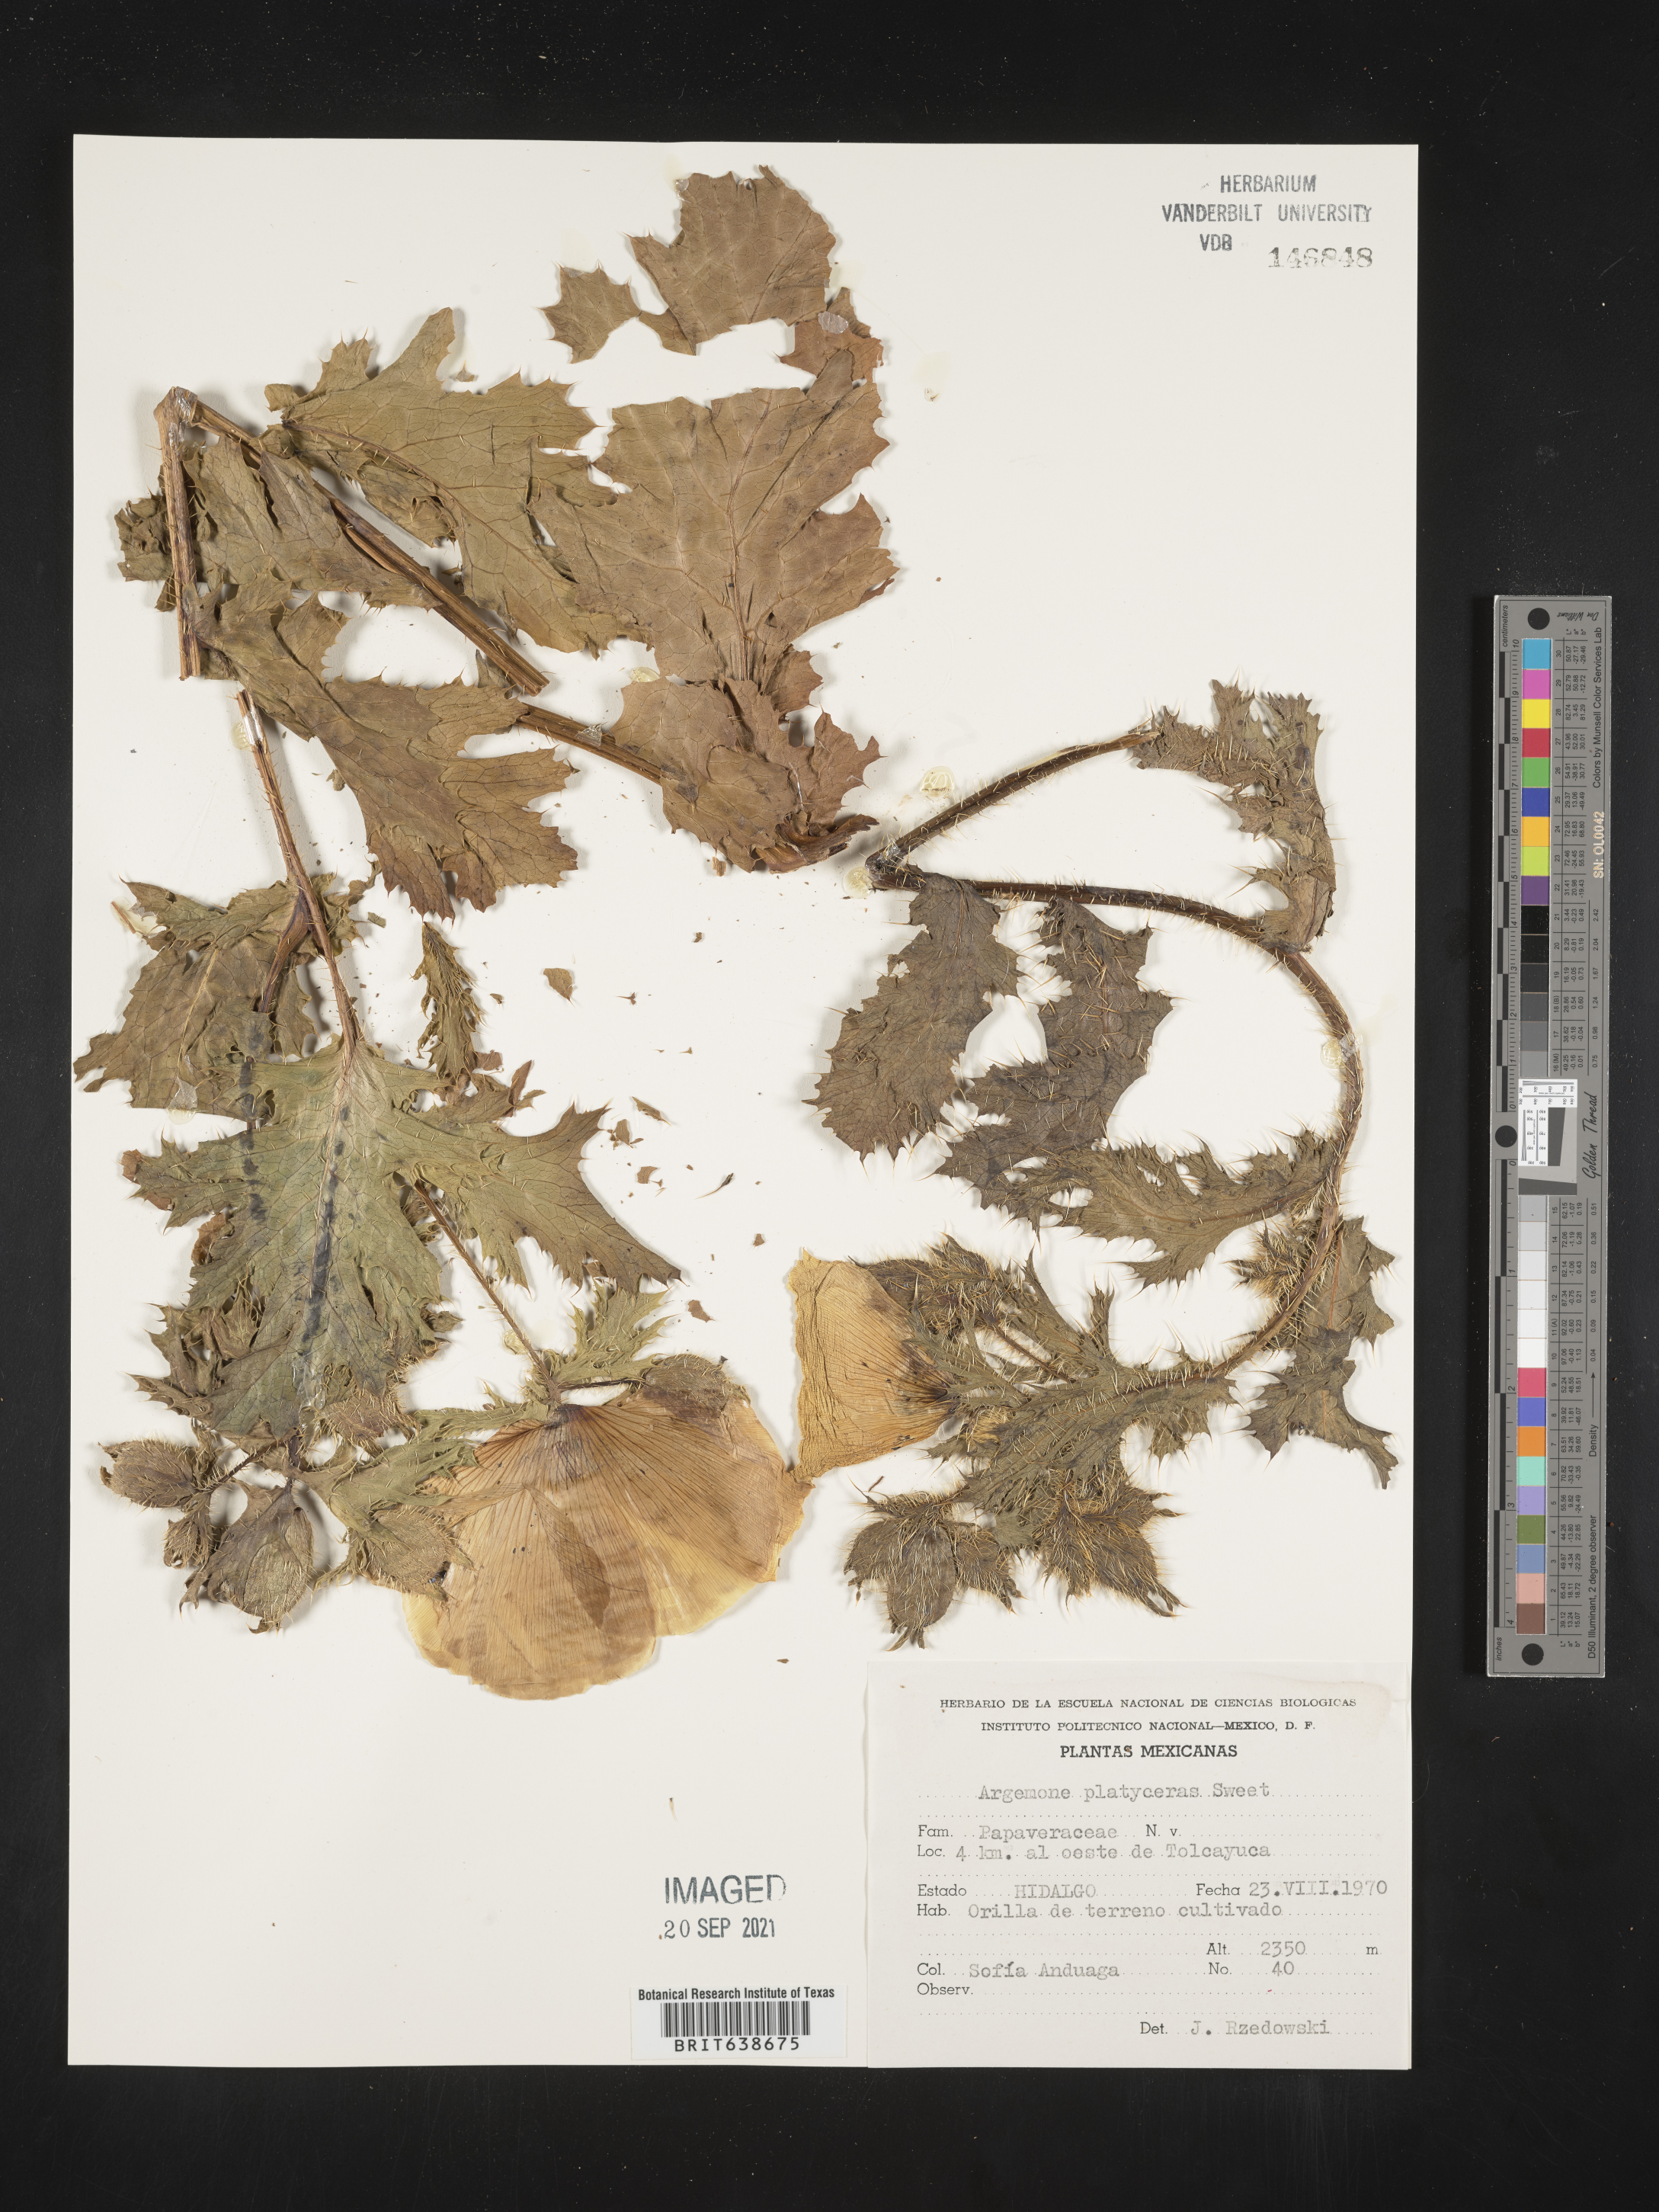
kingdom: Plantae
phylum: Tracheophyta
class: Magnoliopsida
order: Ranunculales
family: Papaveraceae
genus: Argemone
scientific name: Argemone
